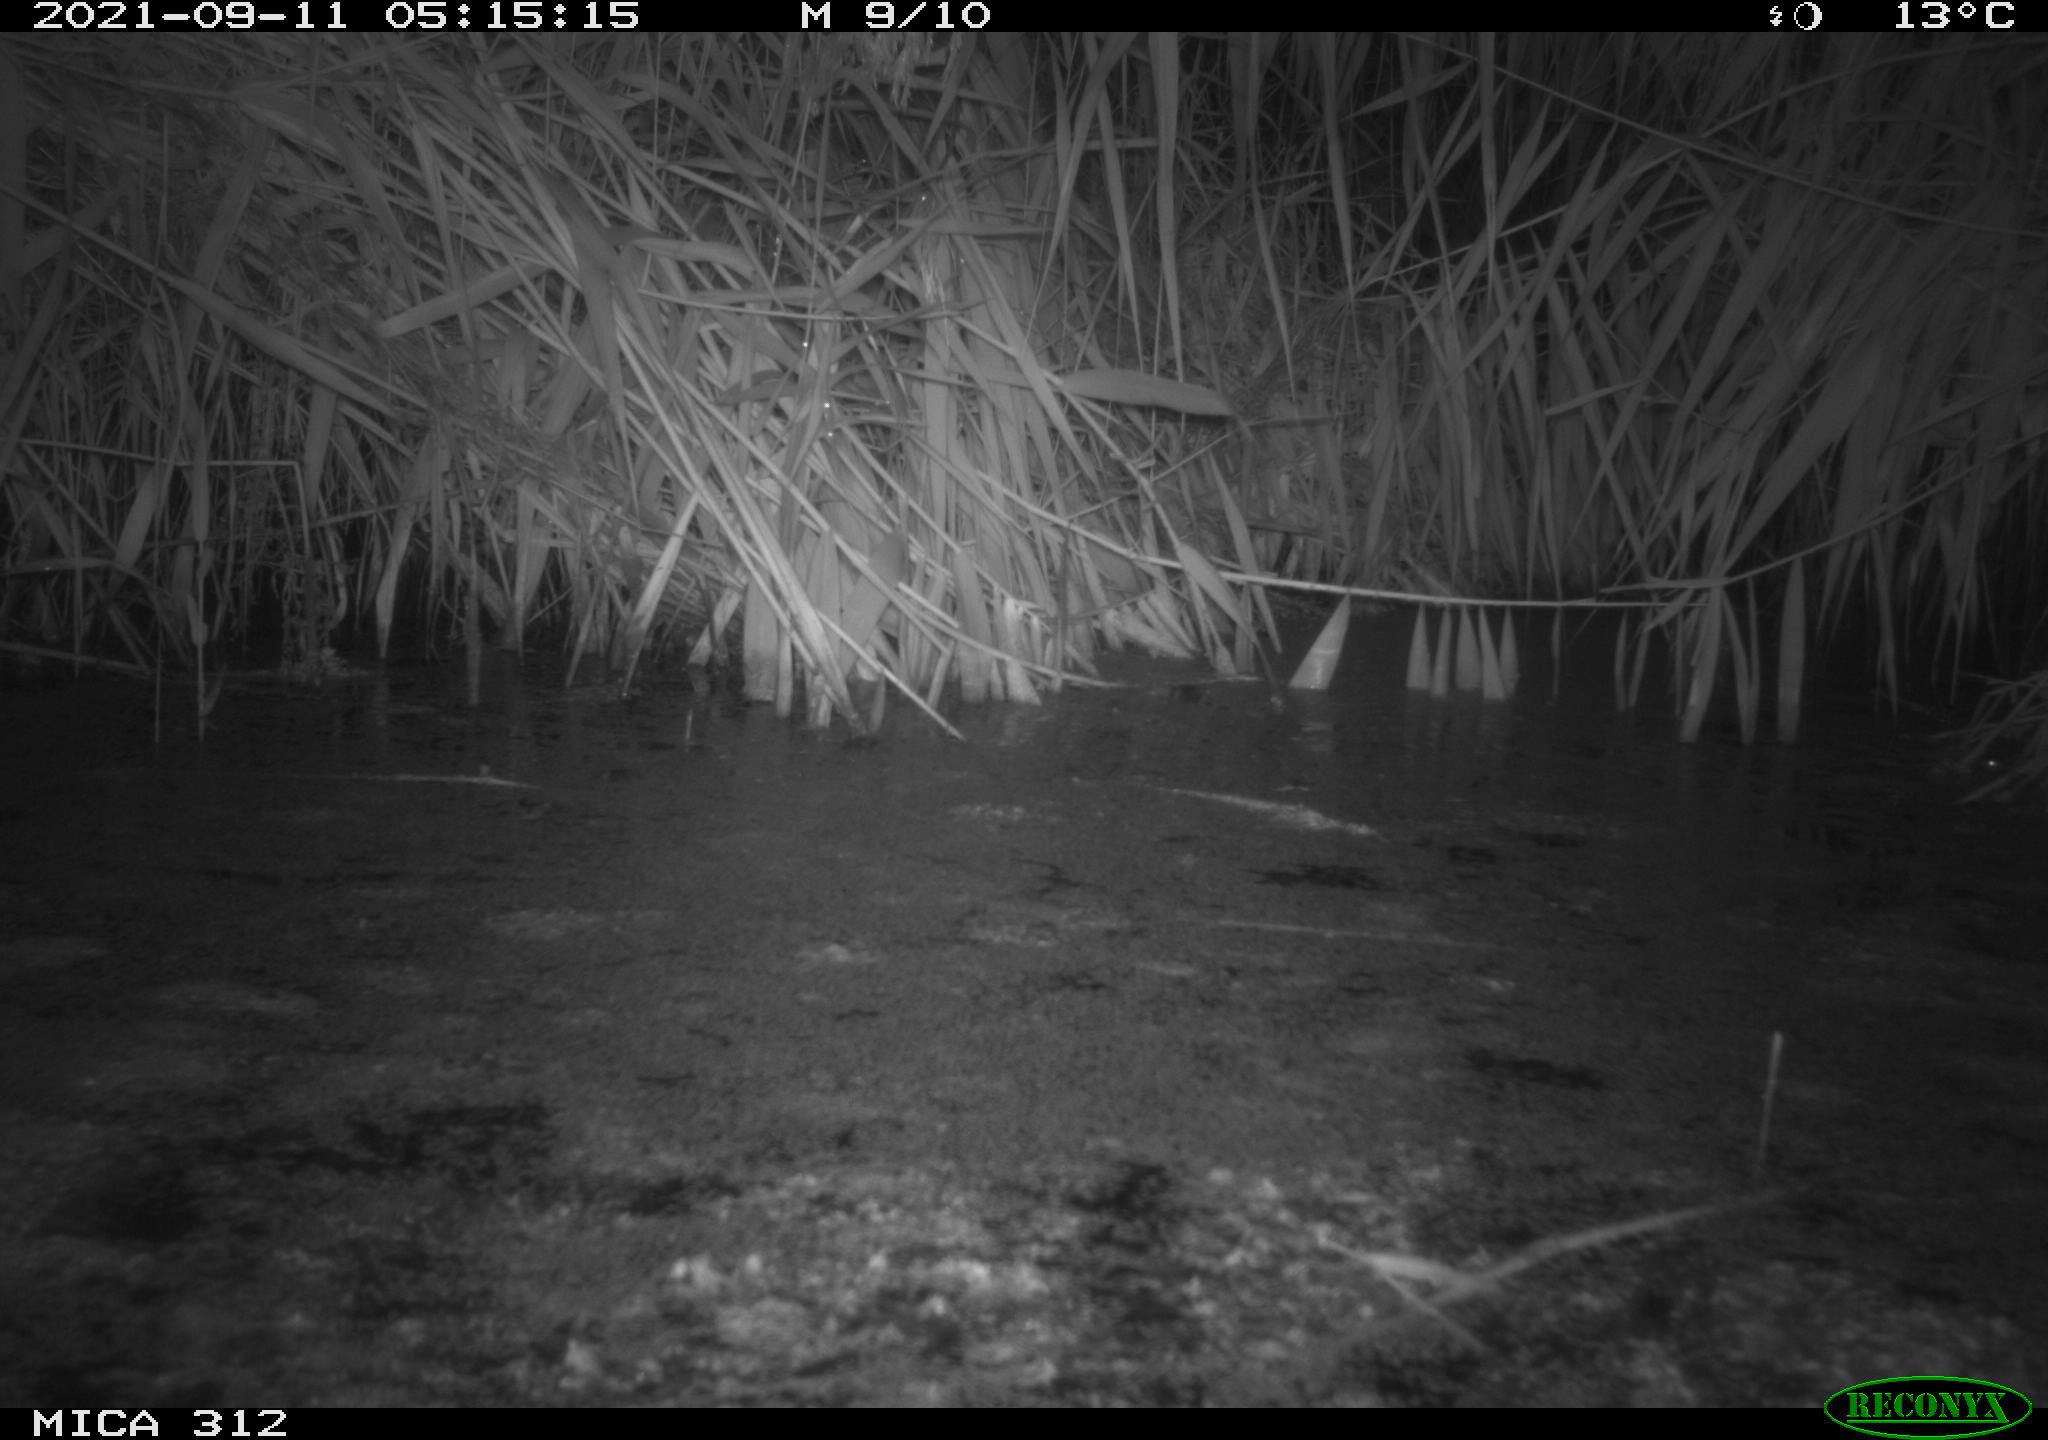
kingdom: Animalia
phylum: Chordata
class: Mammalia
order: Rodentia
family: Muridae
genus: Rattus
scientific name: Rattus norvegicus
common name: Brown rat
